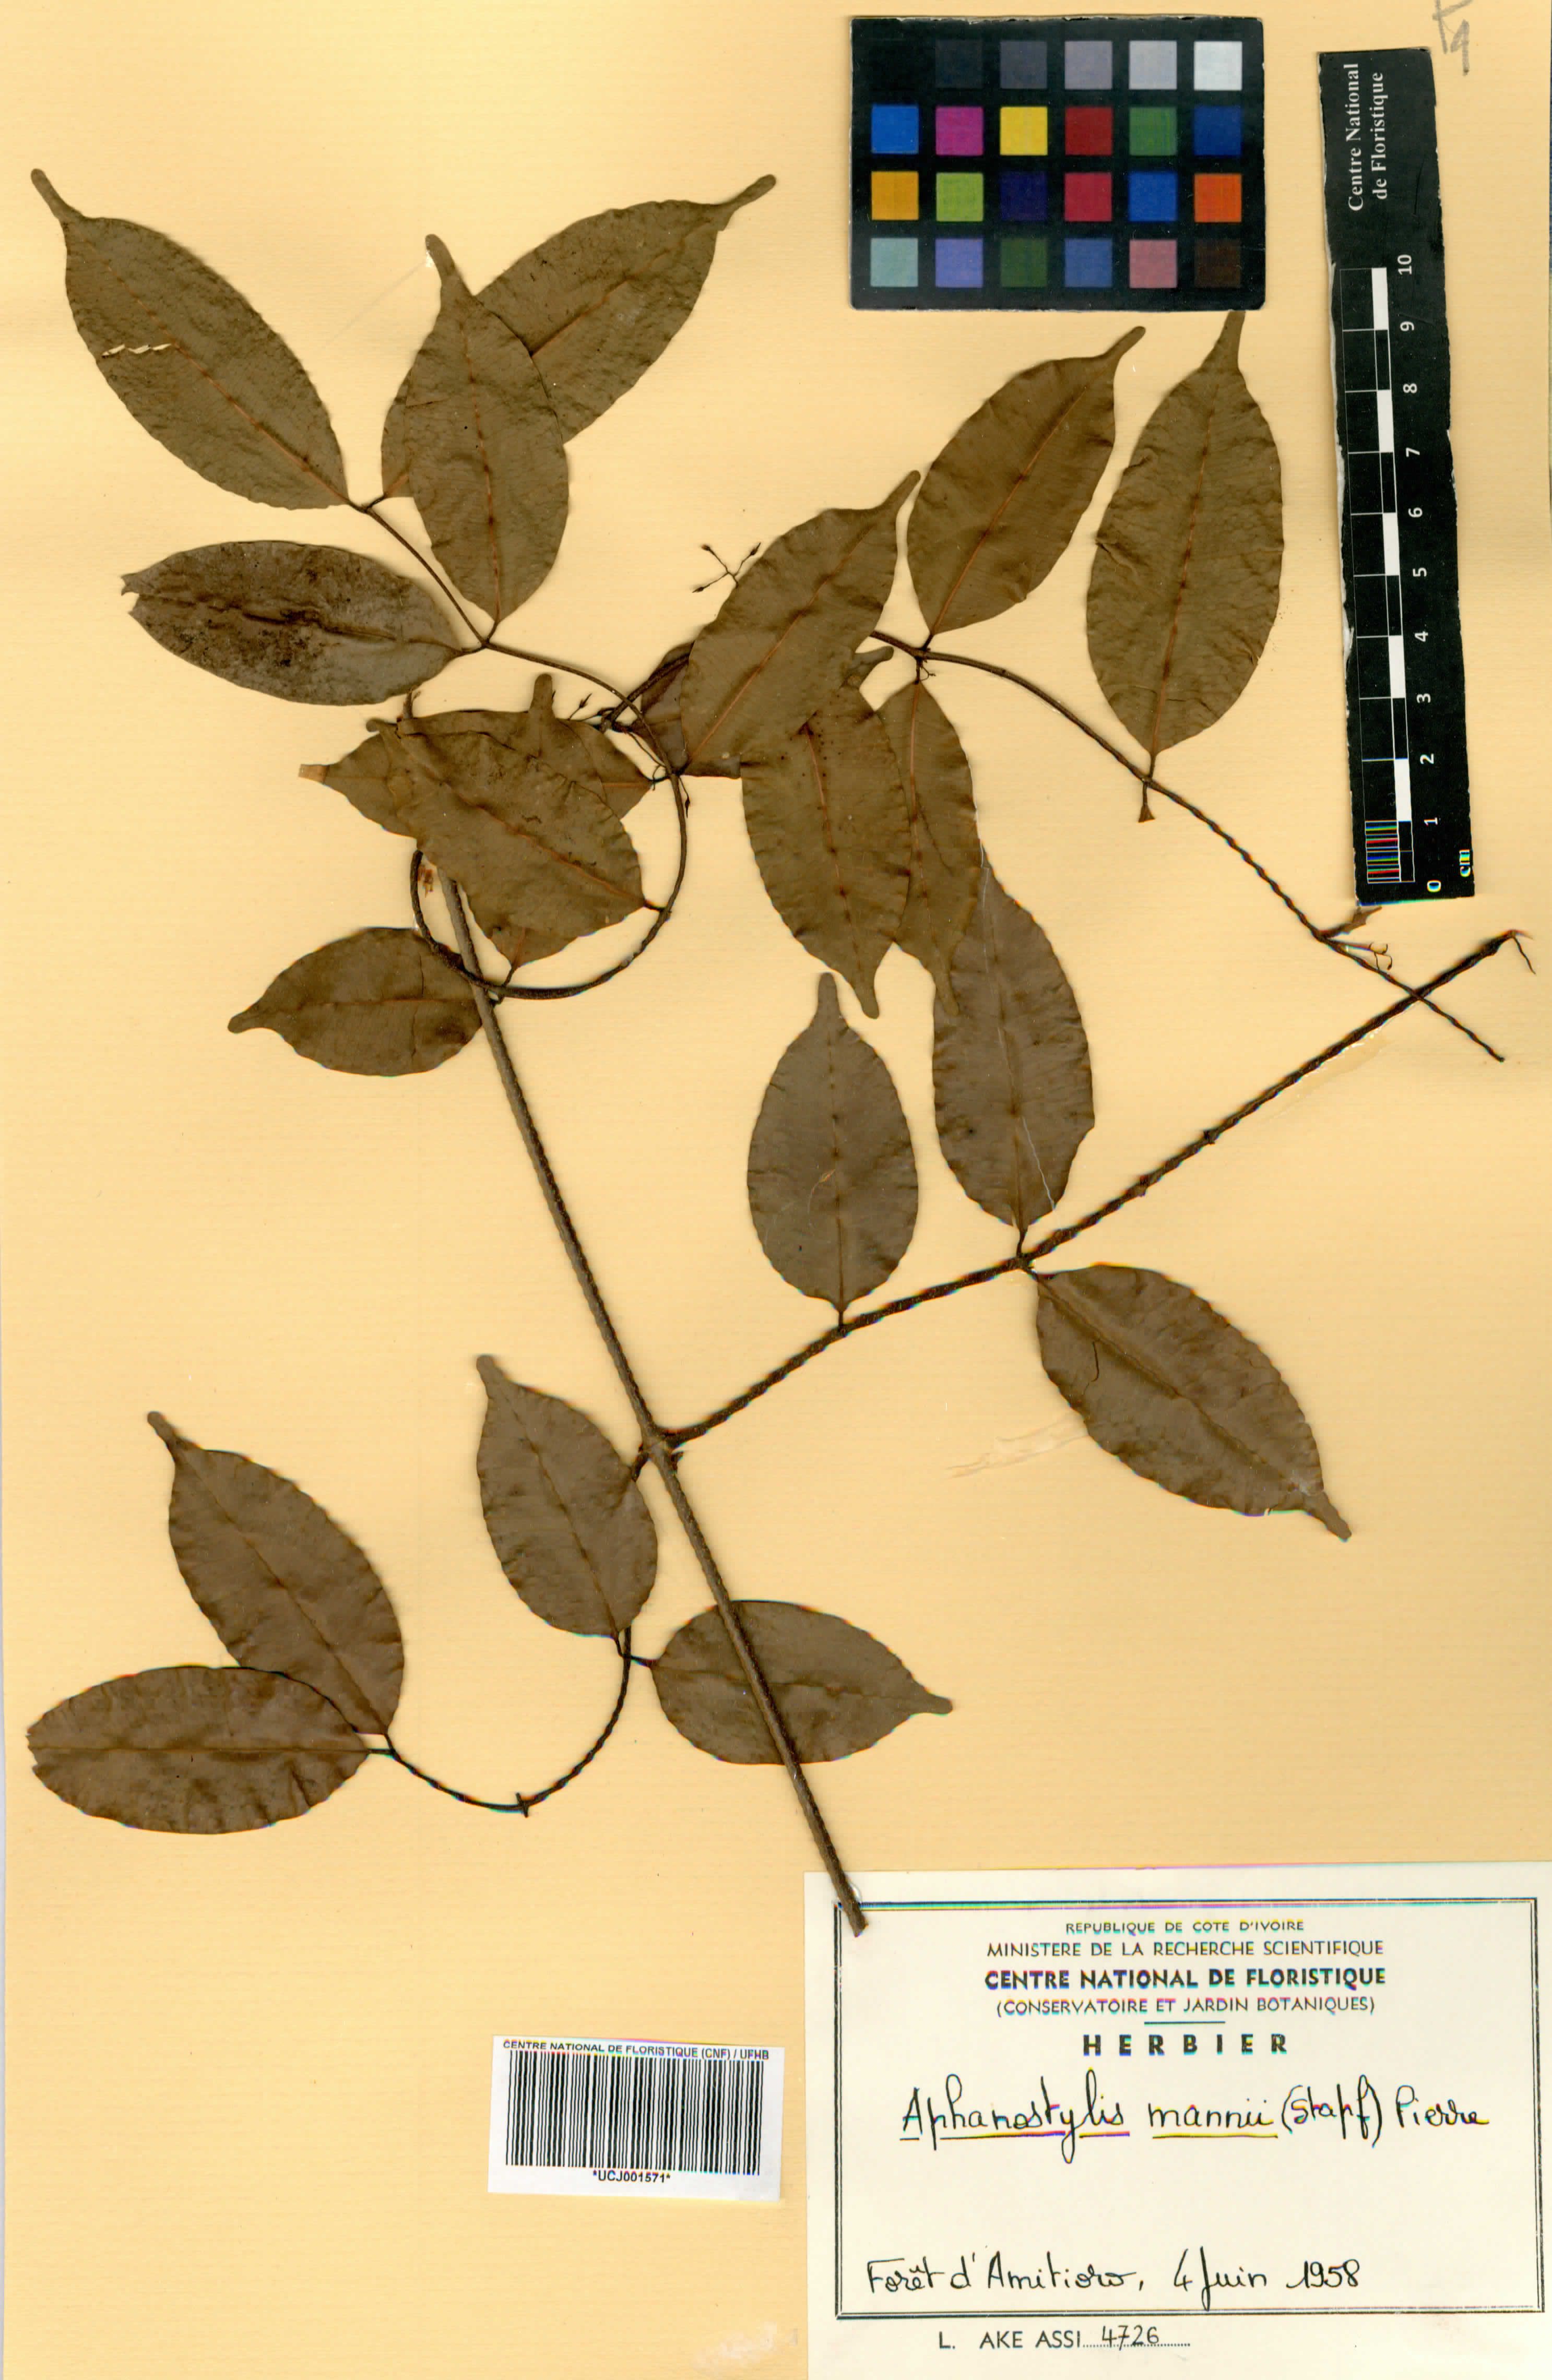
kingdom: Plantae
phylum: Tracheophyta
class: Magnoliopsida
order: Gentianales
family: Apocynaceae
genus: Landolphia
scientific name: Landolphia incerta
